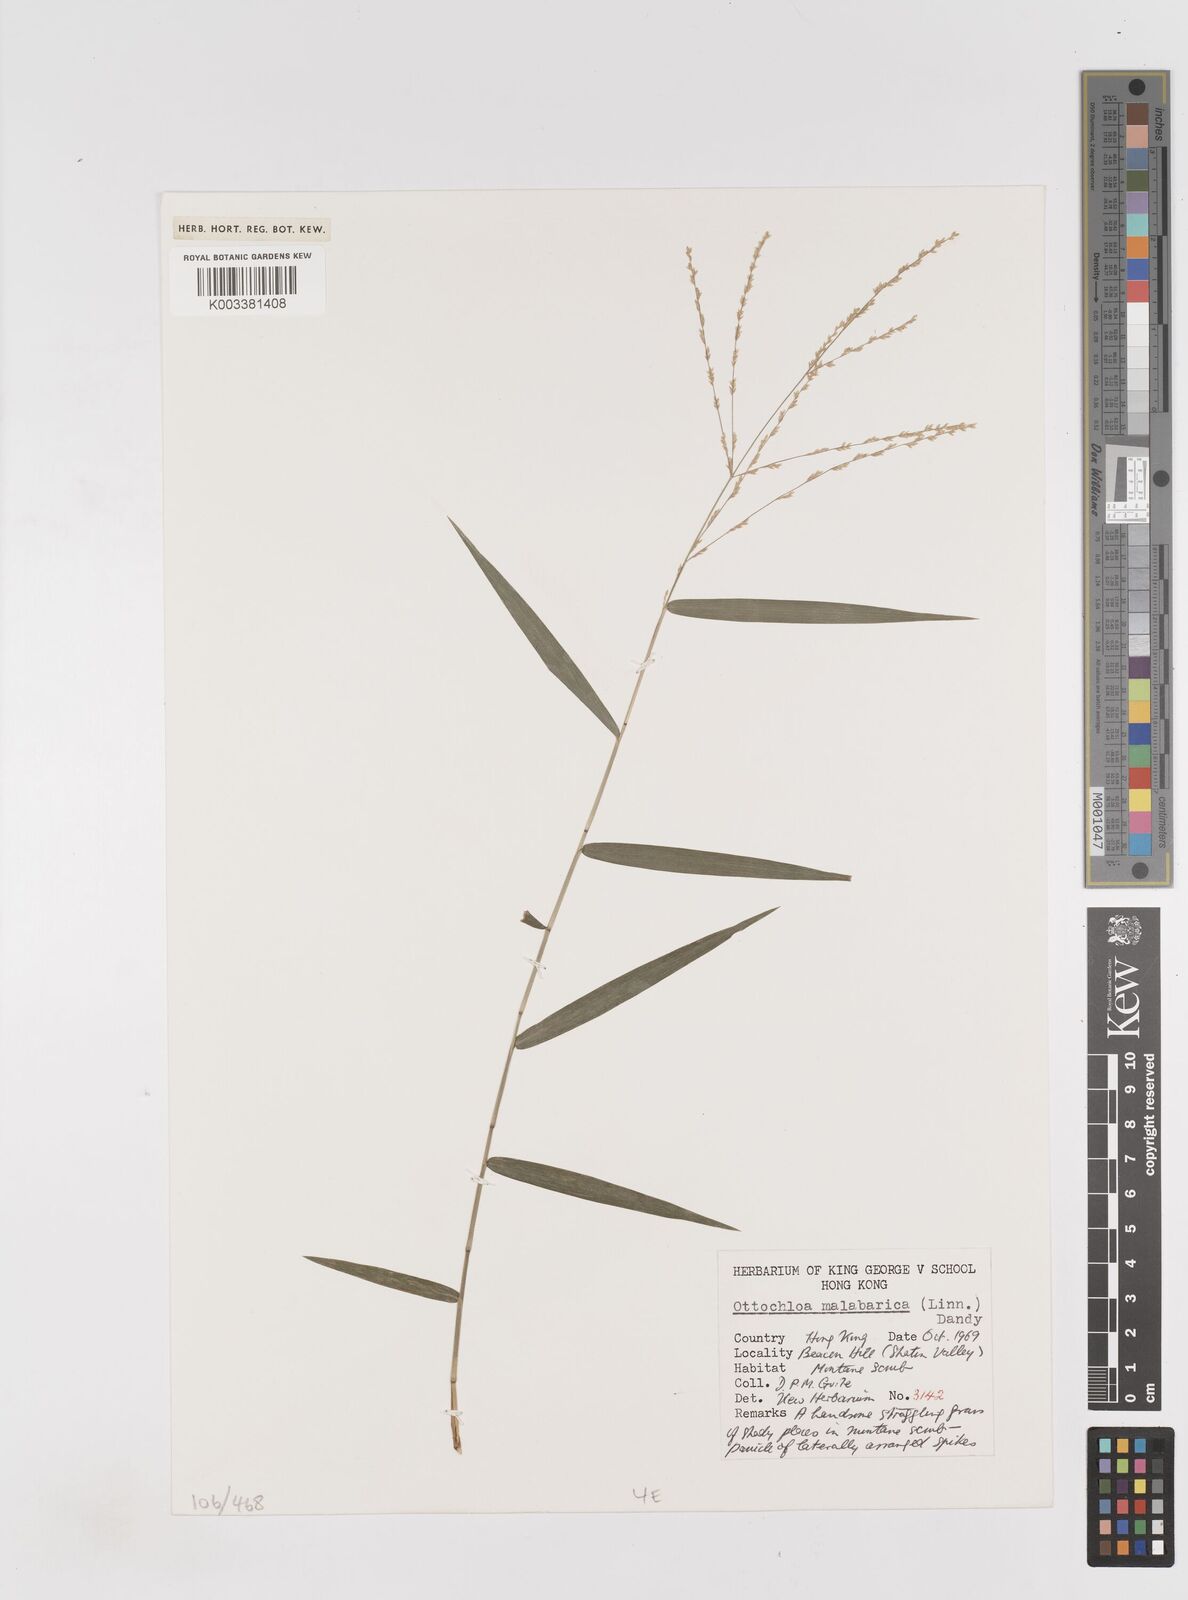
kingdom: Plantae
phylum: Tracheophyta
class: Liliopsida
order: Poales
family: Poaceae
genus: Ottochloa
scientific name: Ottochloa nodosa
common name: Slender-panic grass
